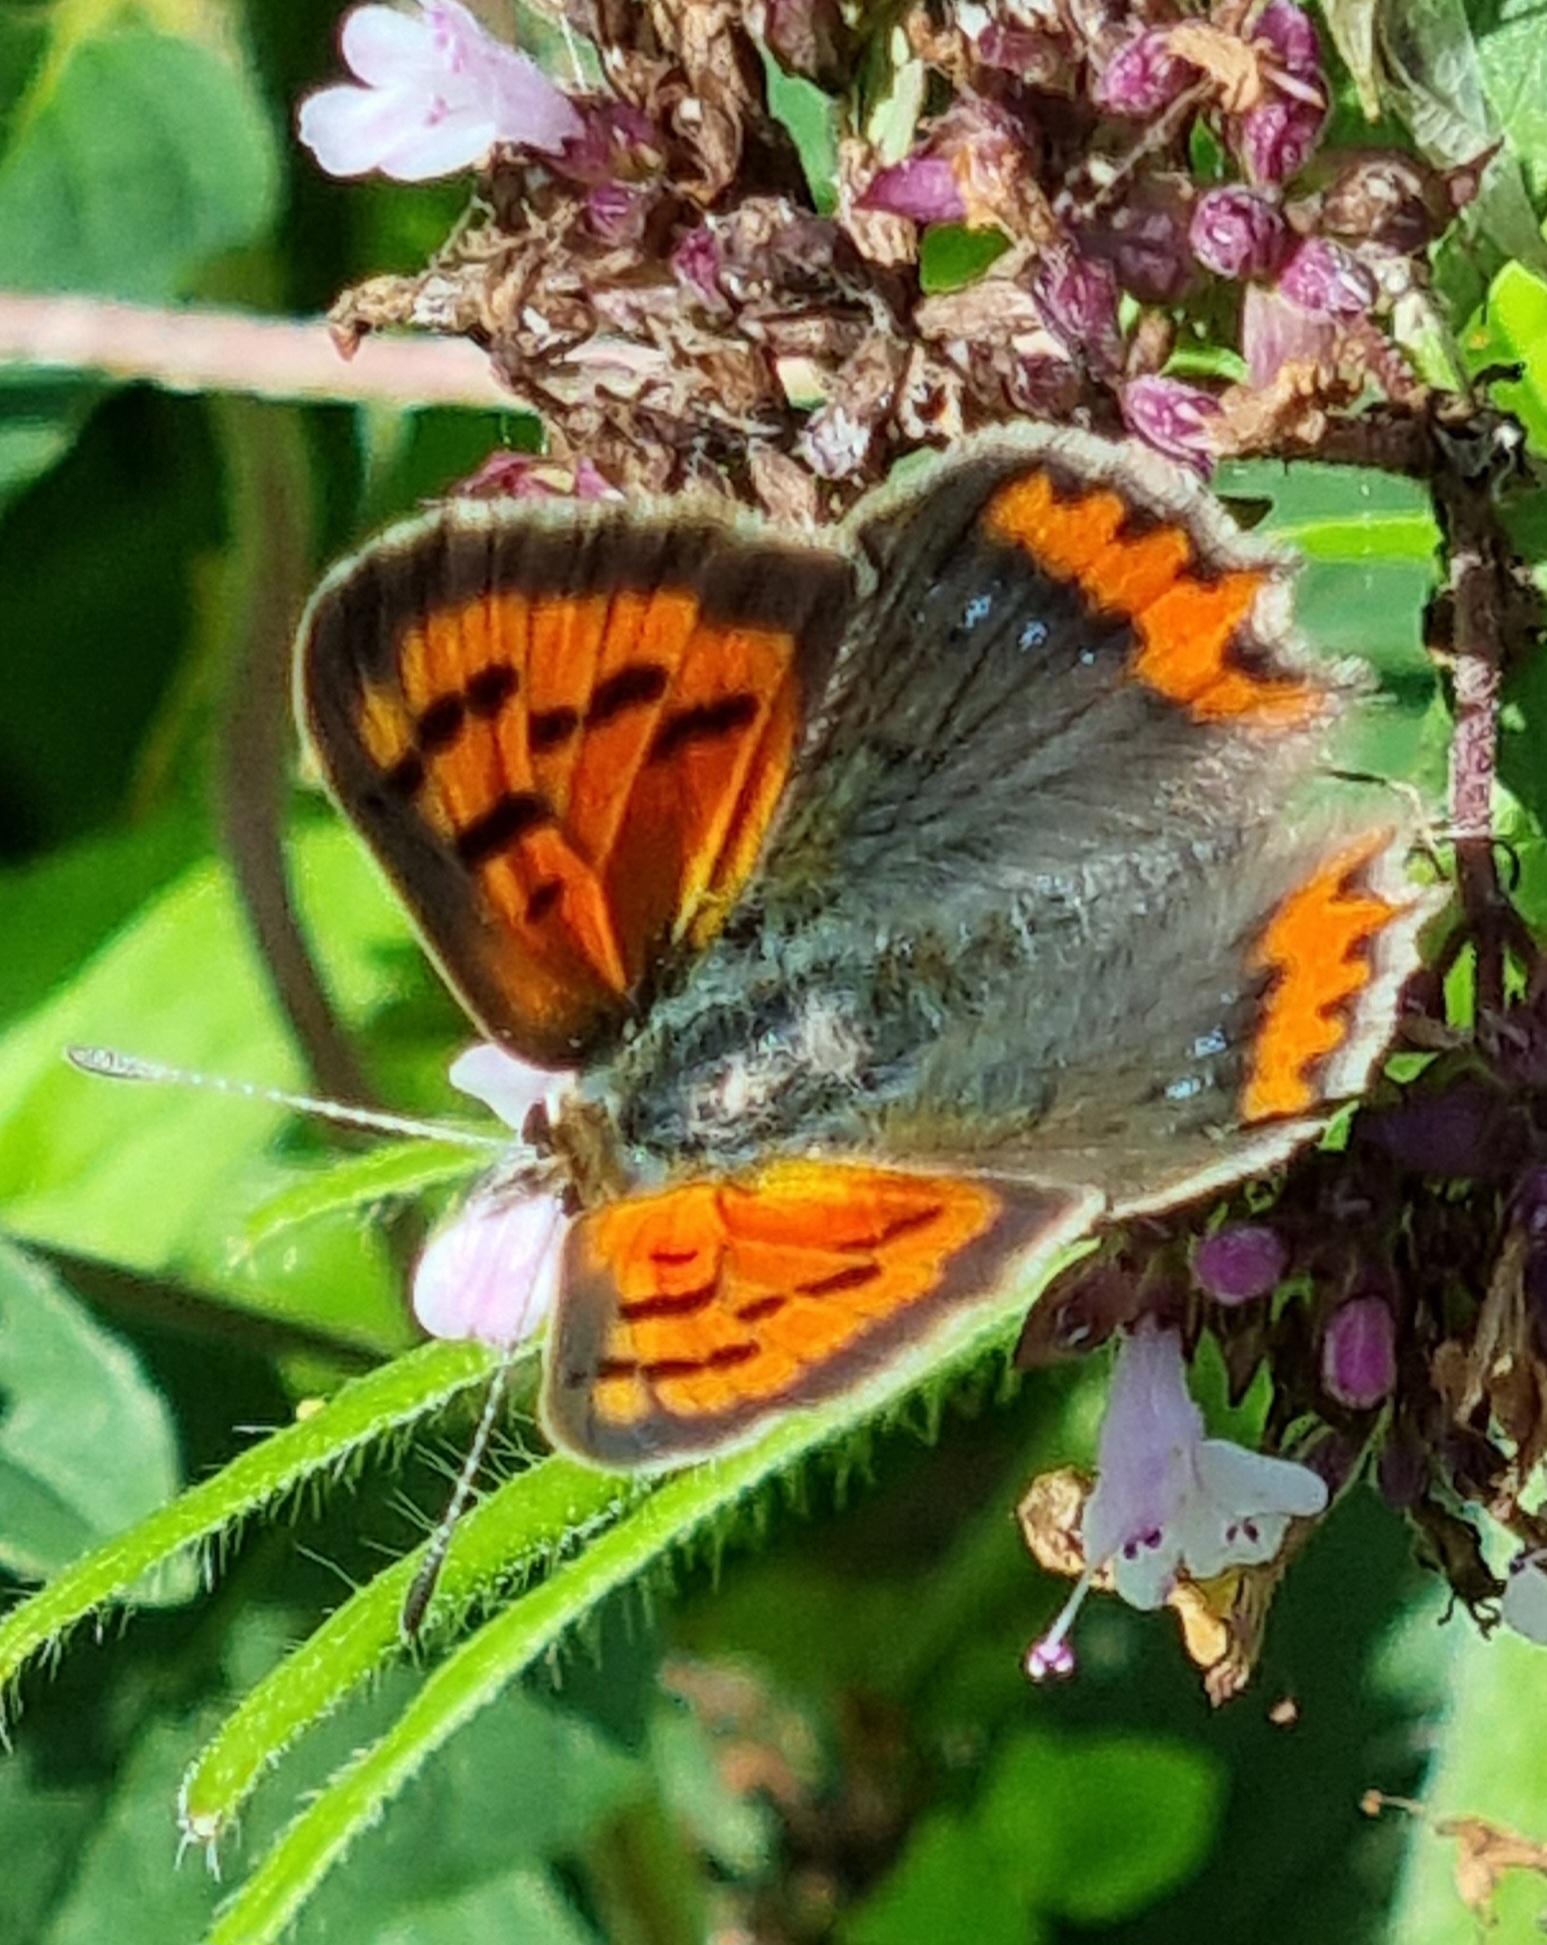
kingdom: Animalia
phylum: Arthropoda
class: Insecta
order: Lepidoptera
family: Lycaenidae
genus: Lycaena
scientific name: Lycaena phlaeas
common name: Lille ildfugl
